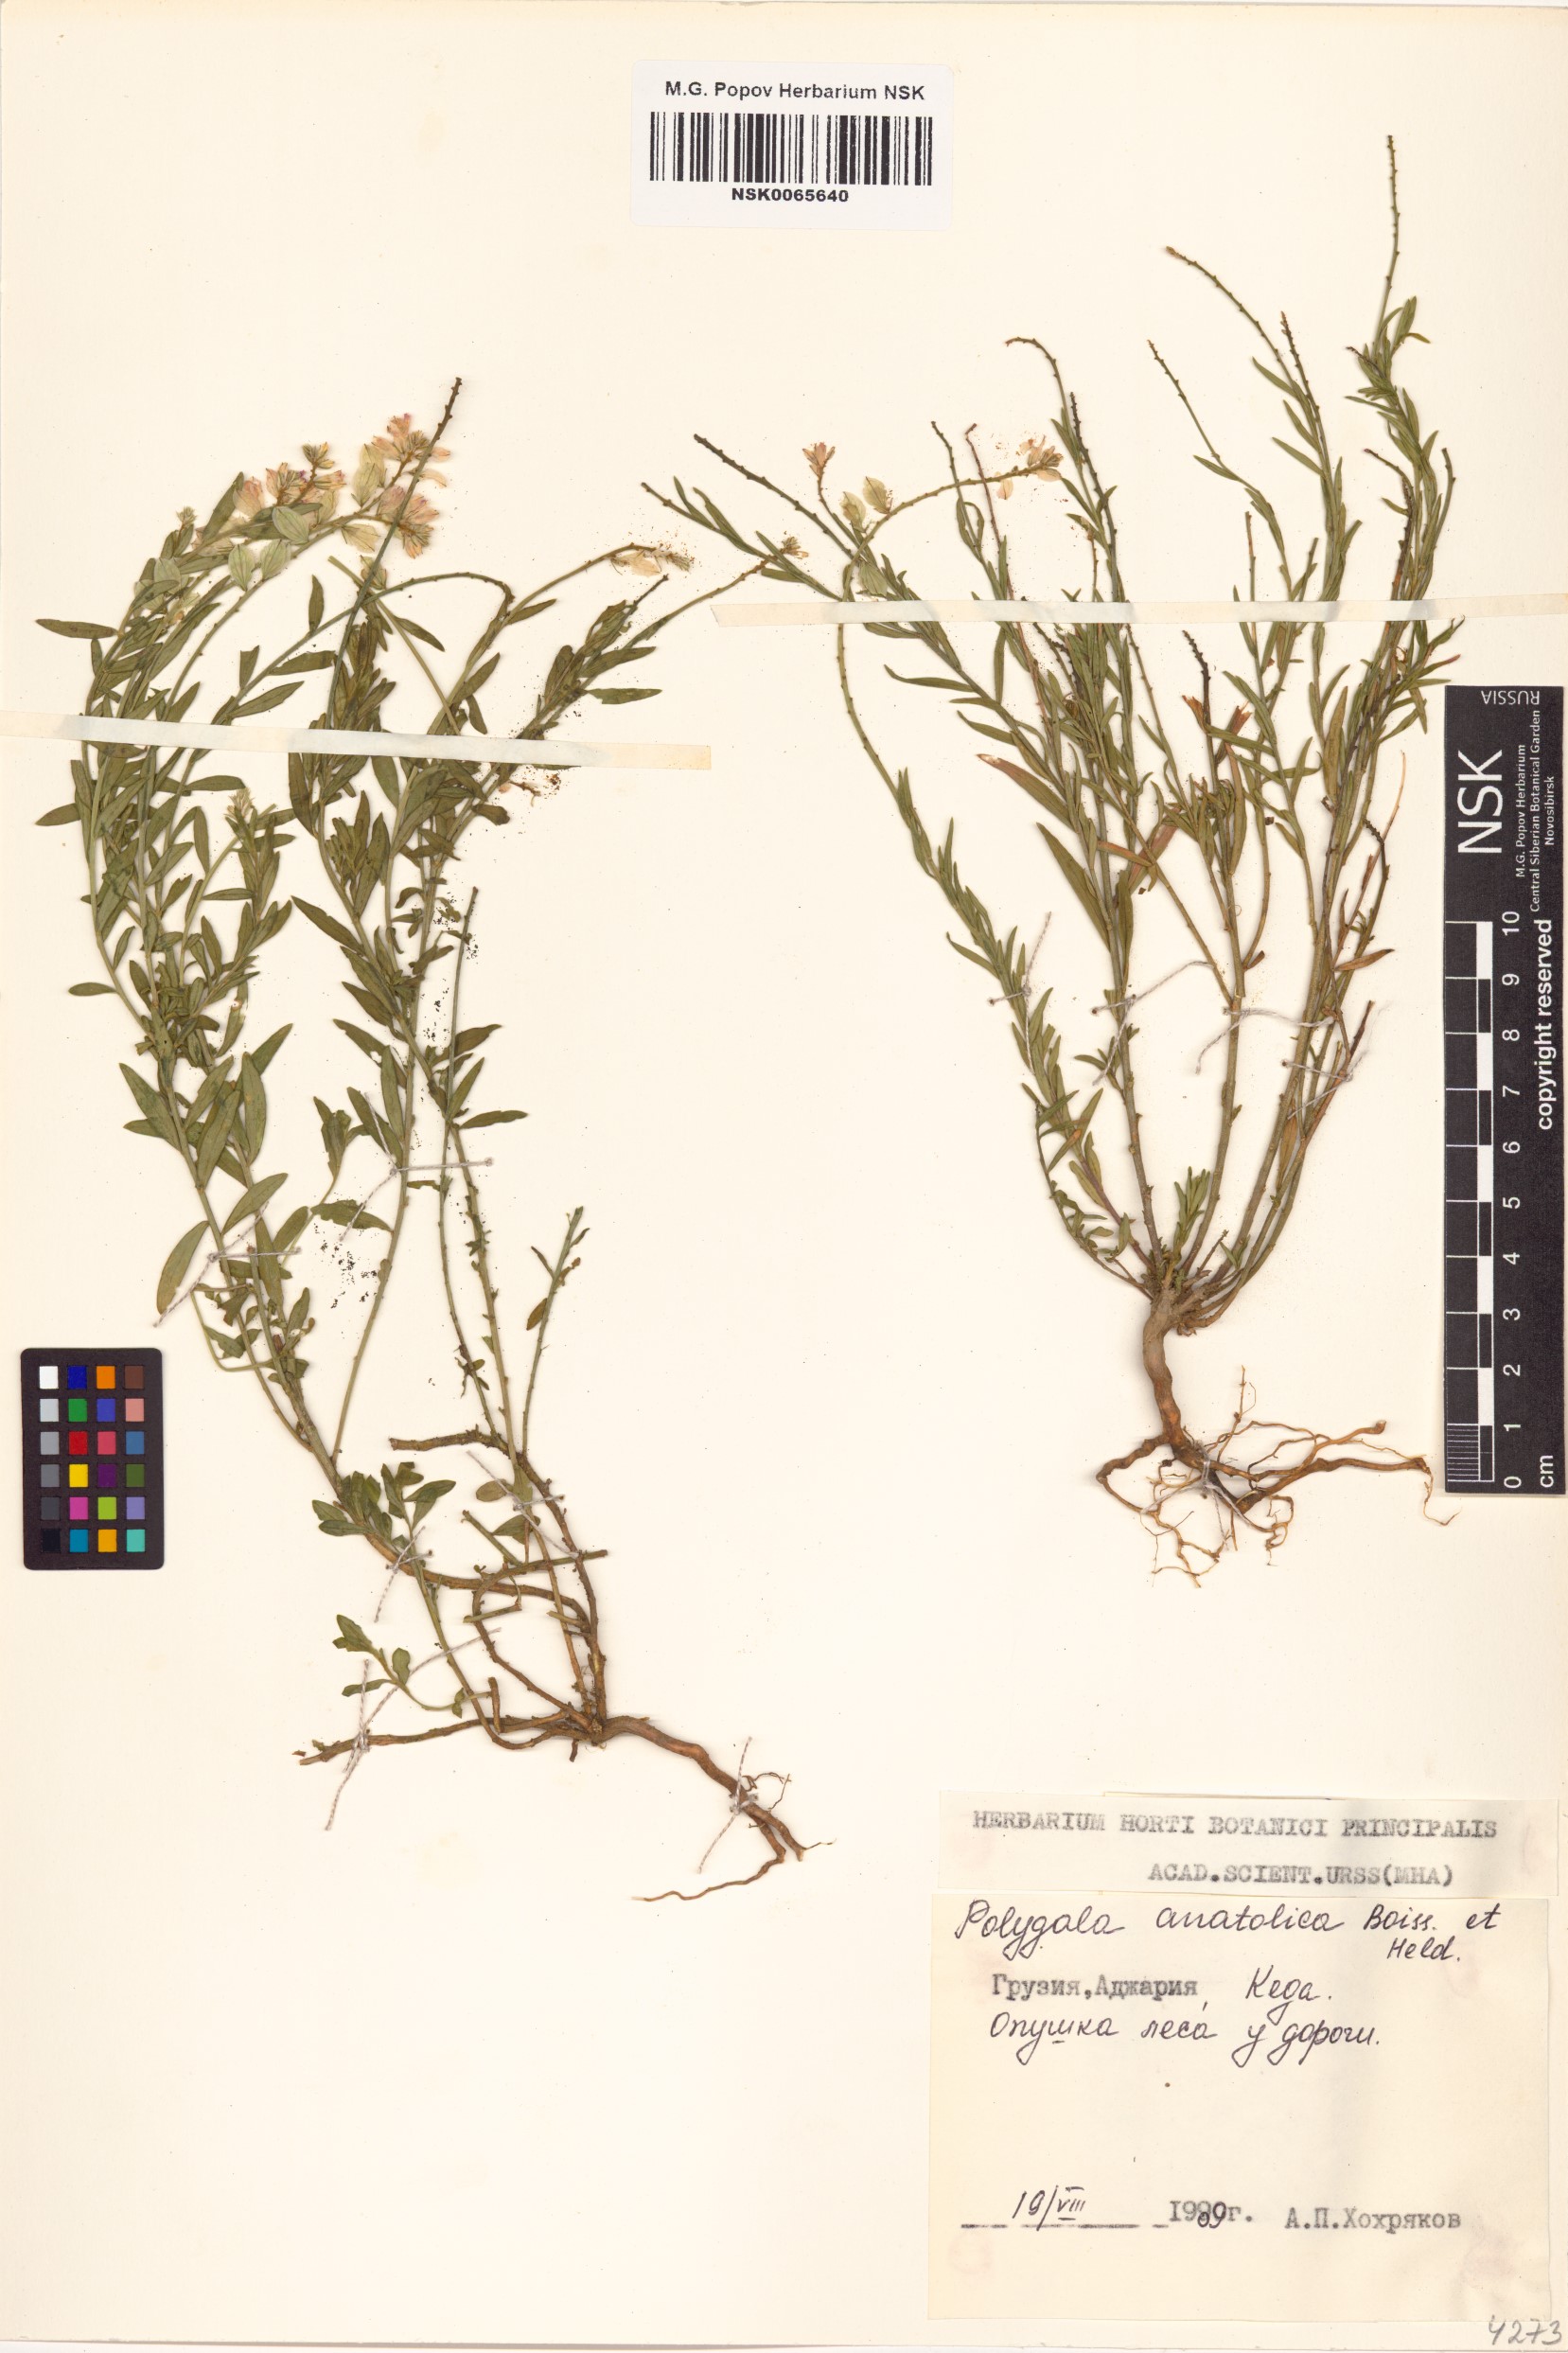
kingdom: Plantae
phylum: Tracheophyta
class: Magnoliopsida
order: Fabales
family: Polygalaceae
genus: Polygala
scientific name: Polygala anatolica
